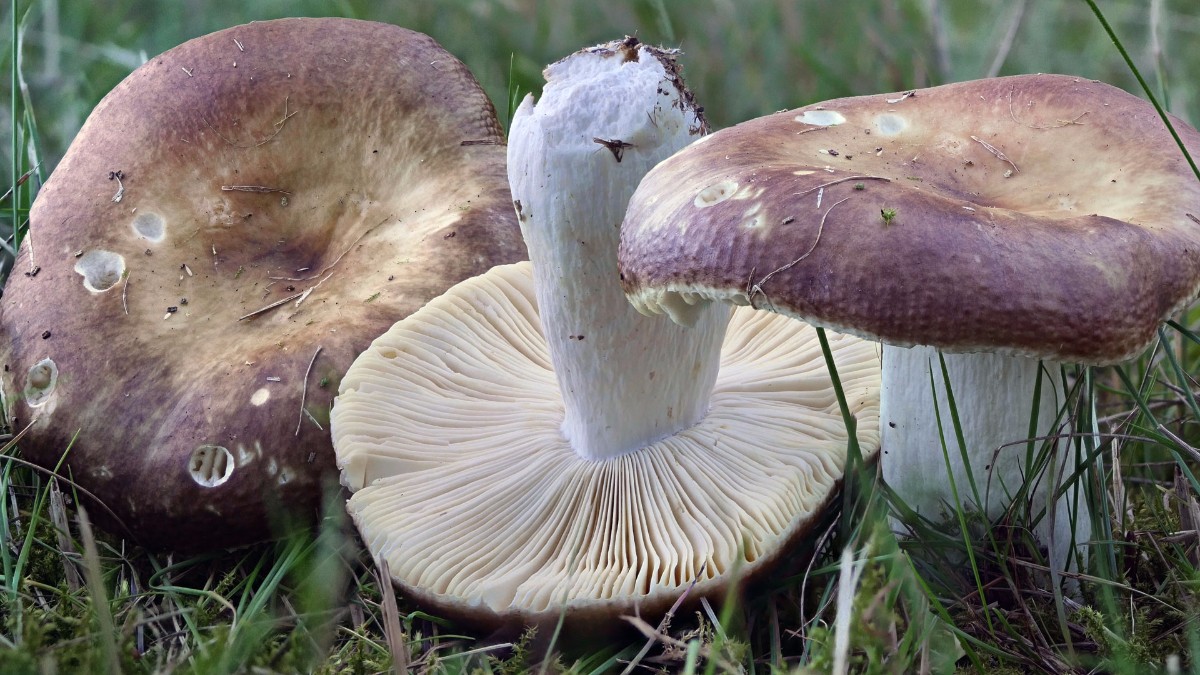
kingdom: Fungi
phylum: Basidiomycota
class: Agaricomycetes
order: Russulales
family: Russulaceae
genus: Russula
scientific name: Russula integra
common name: mandel-skørhat
